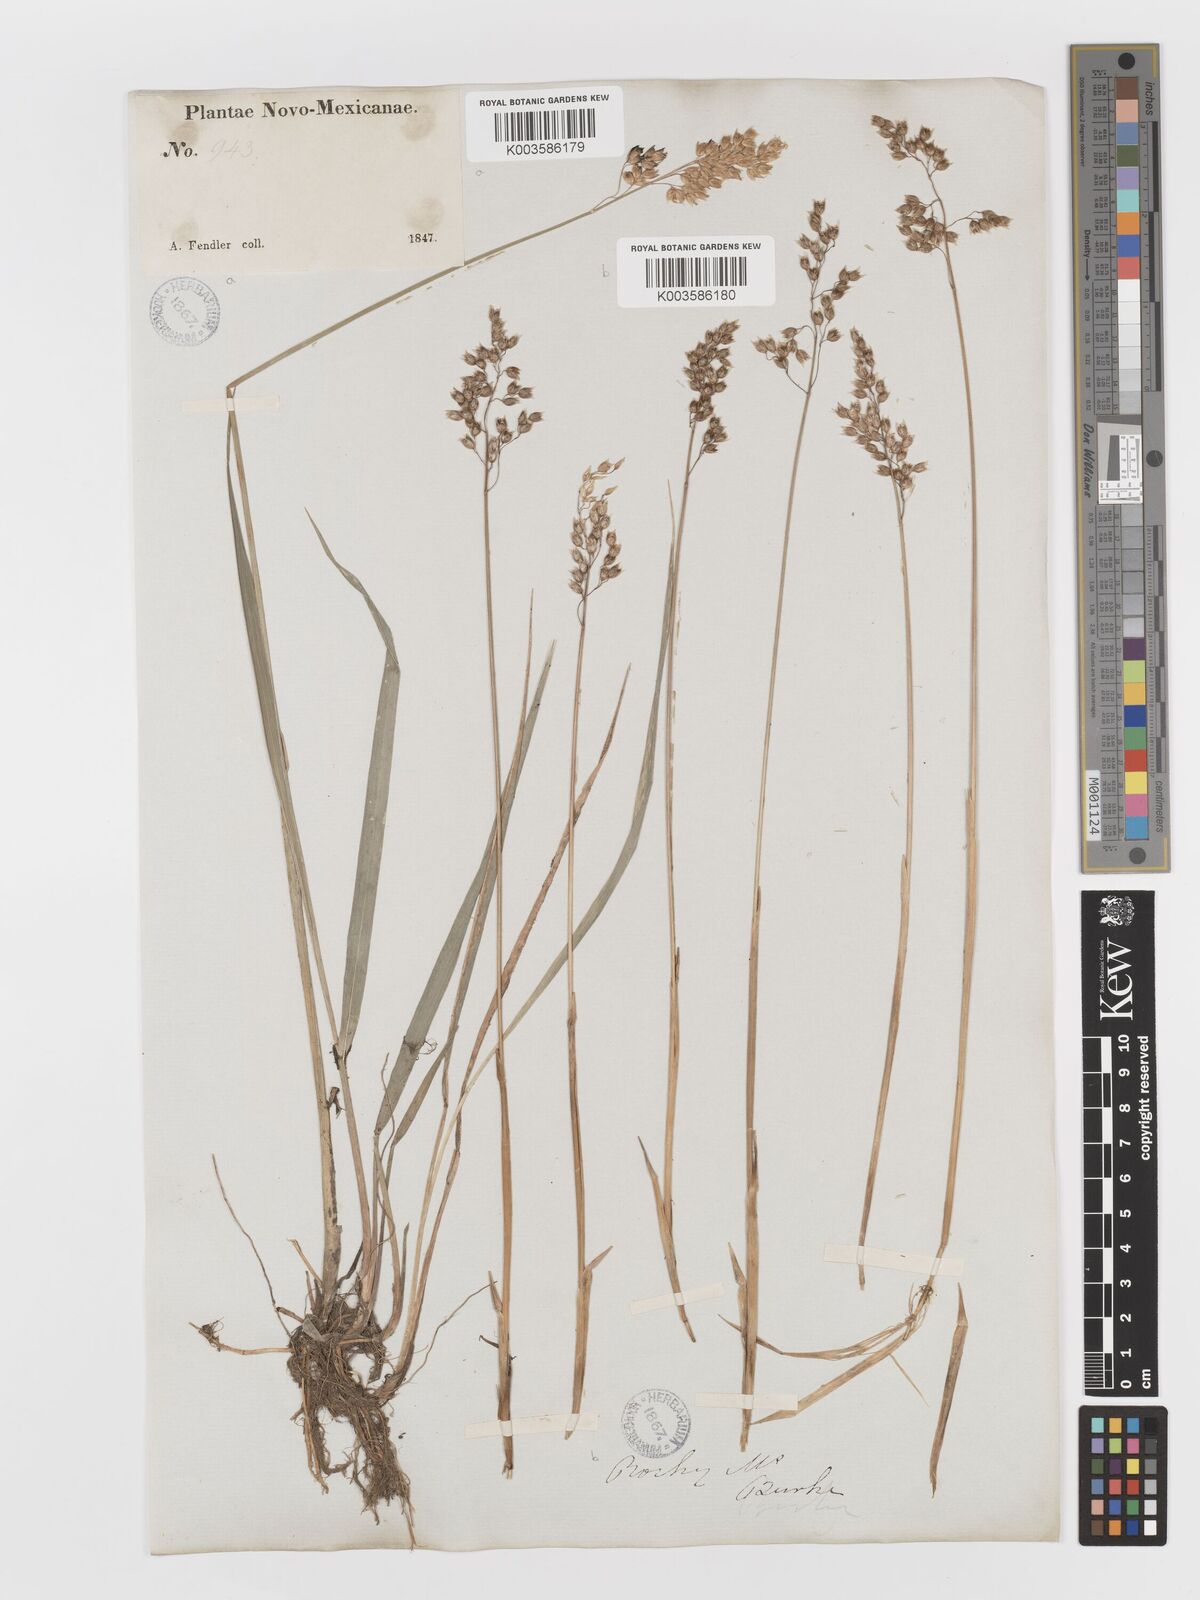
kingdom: Plantae
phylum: Tracheophyta
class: Liliopsida
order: Poales
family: Poaceae
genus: Anthoxanthum
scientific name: Anthoxanthum nitens
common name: Holy grass
